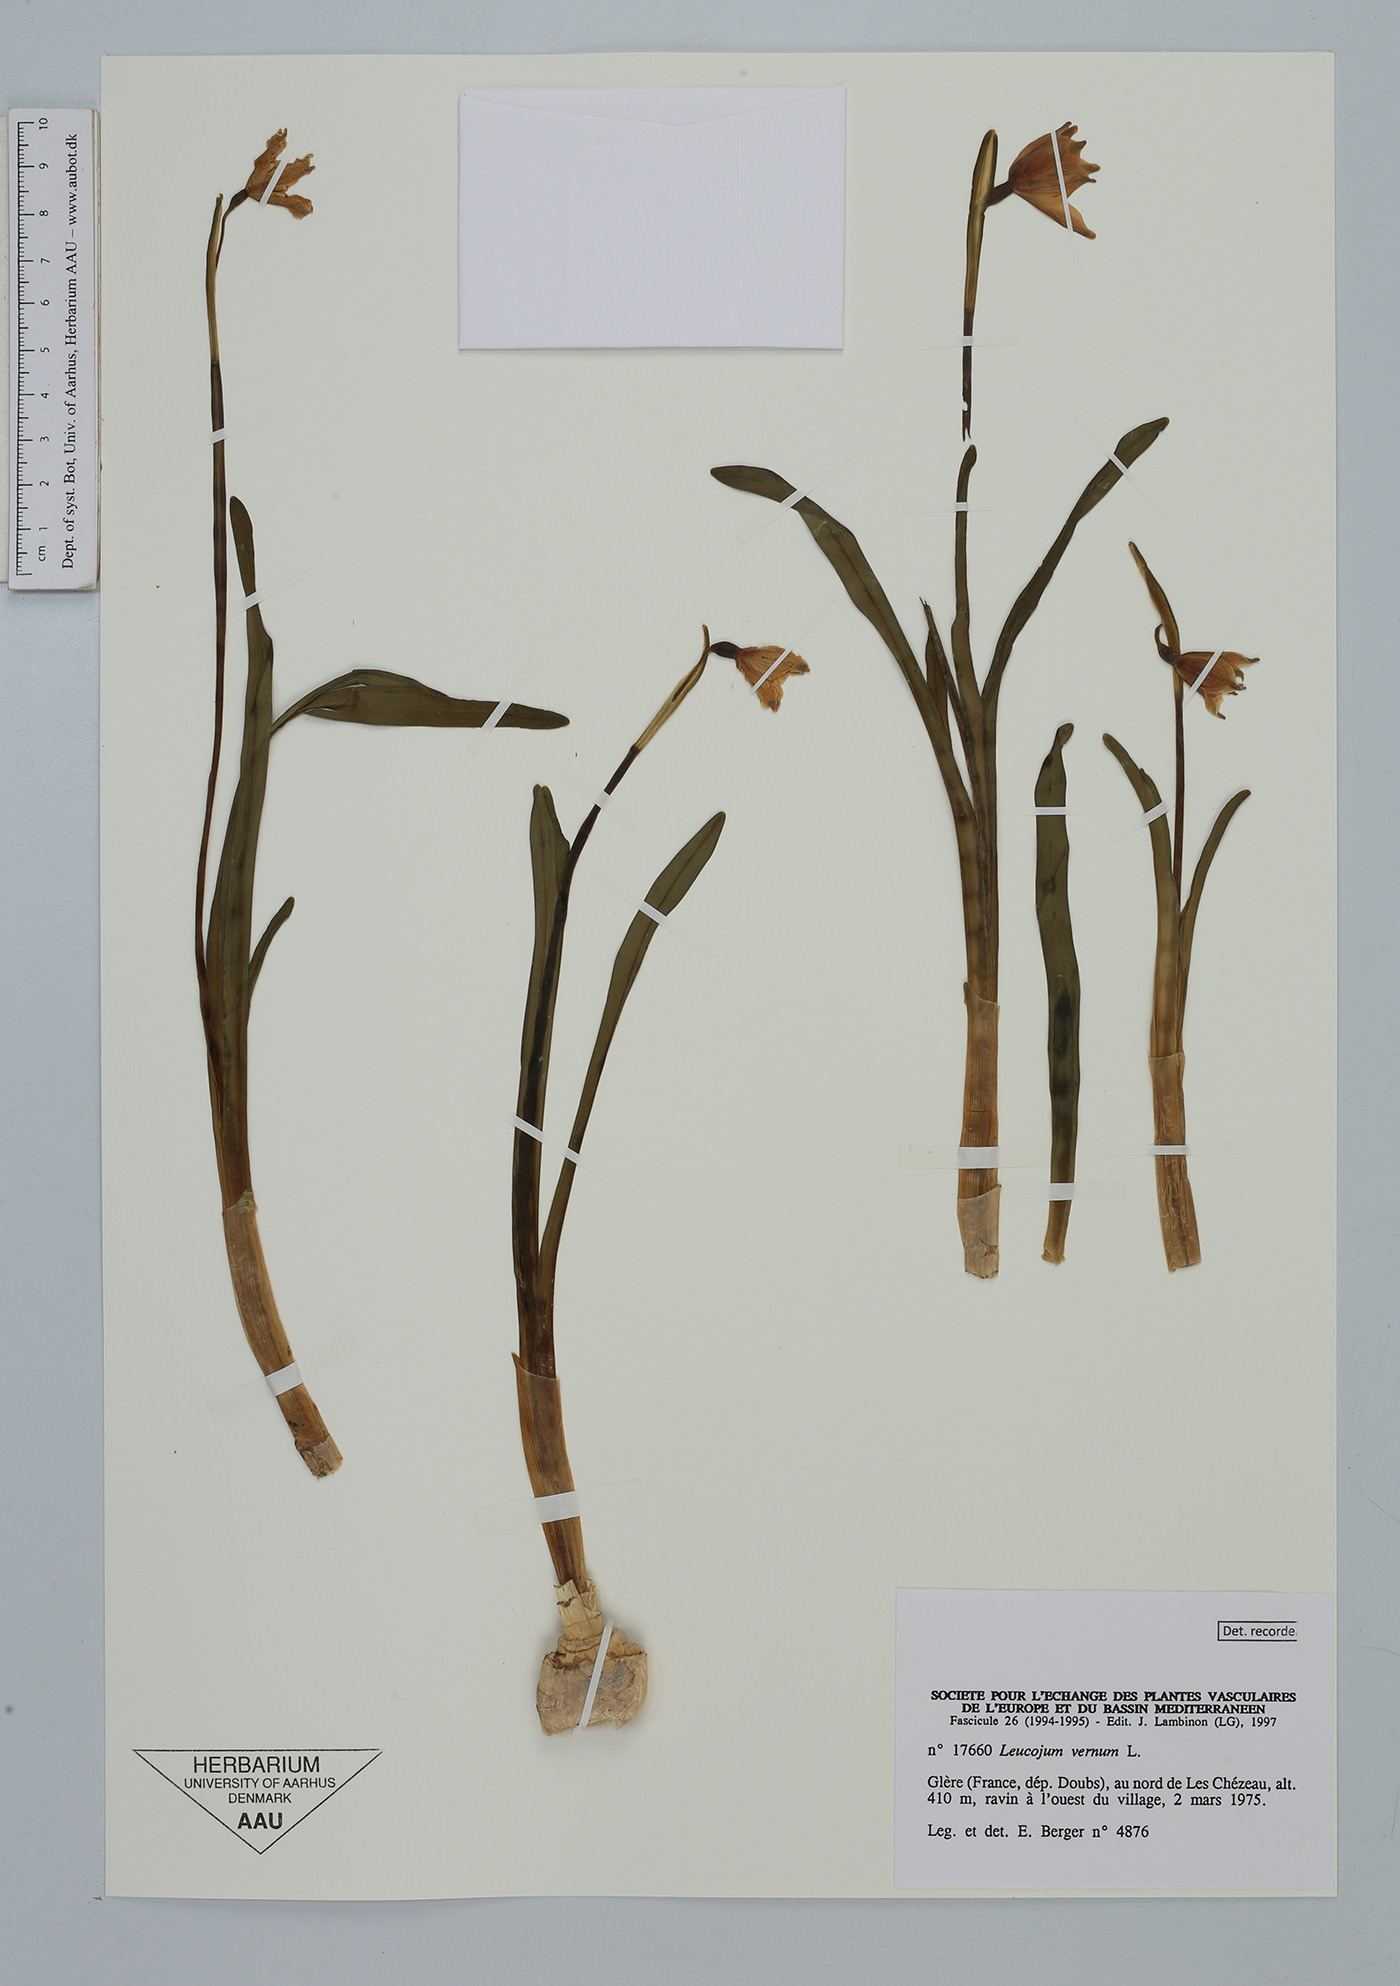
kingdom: Plantae
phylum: Tracheophyta
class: Liliopsida
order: Asparagales
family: Amaryllidaceae
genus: Leucojum
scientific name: Leucojum vernum
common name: Spring snowflake
